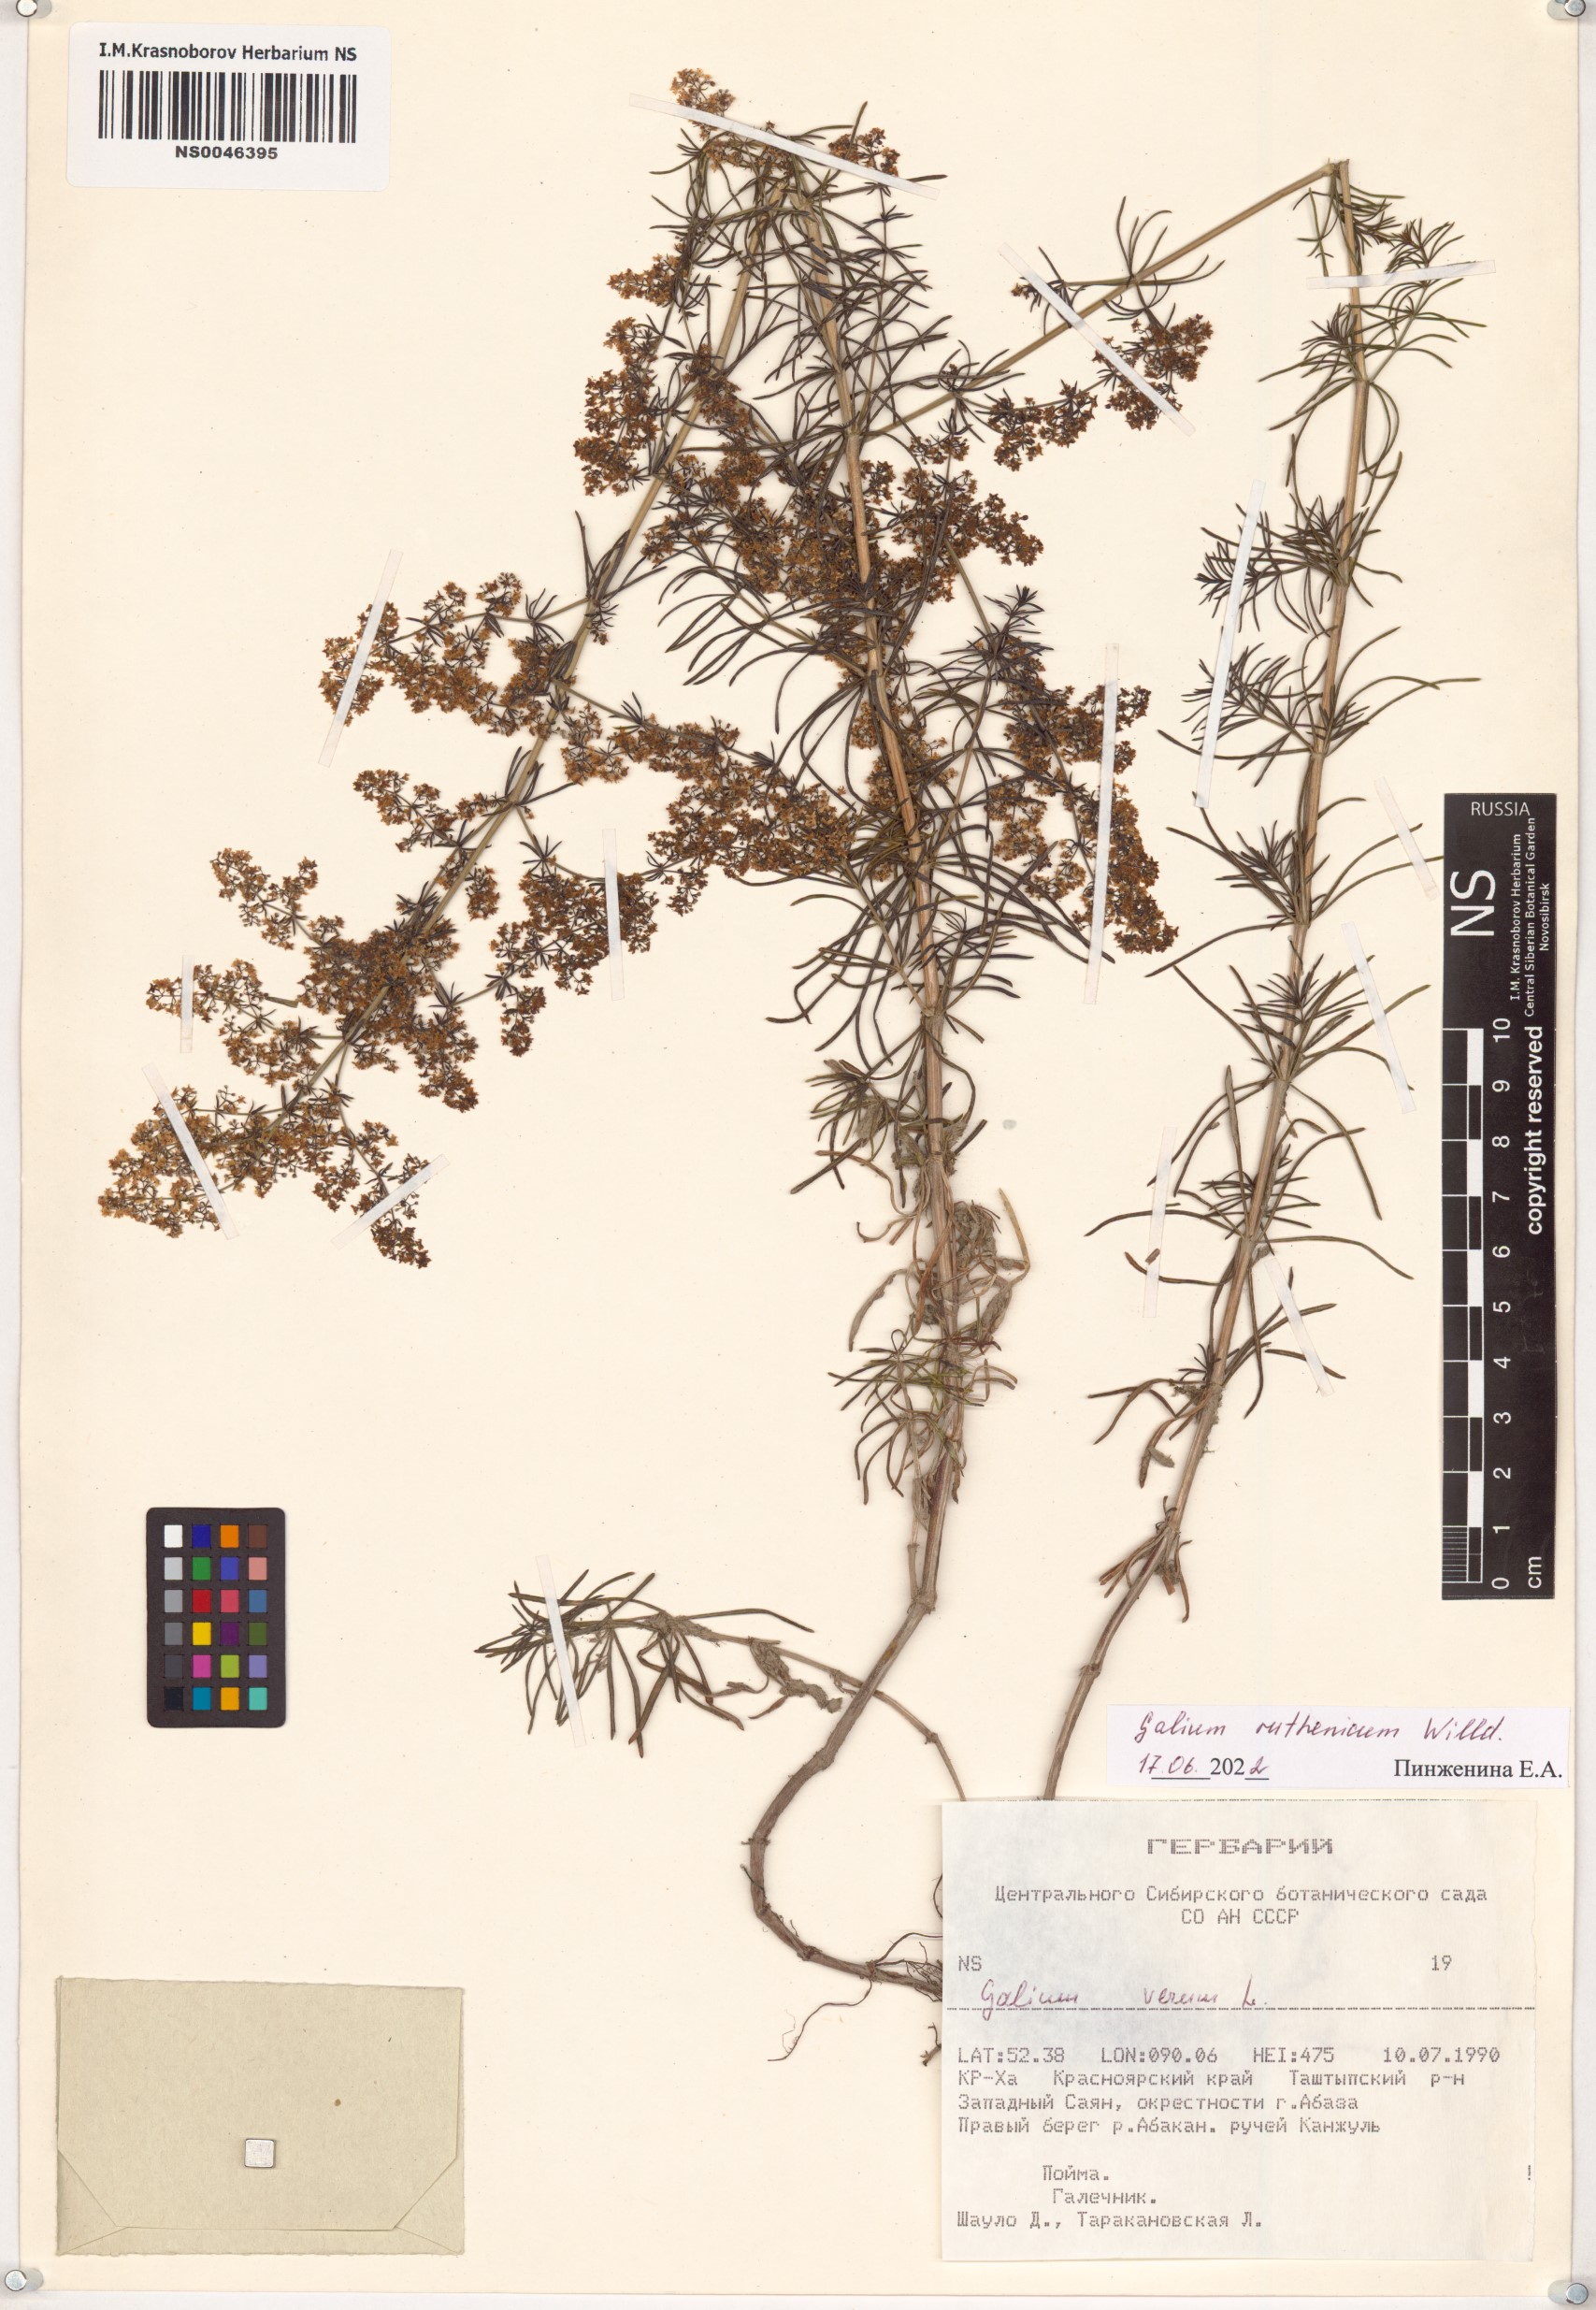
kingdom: Plantae
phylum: Tracheophyta
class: Magnoliopsida
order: Gentianales
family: Rubiaceae
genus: Galium
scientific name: Galium verum
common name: Lady's bedstraw
